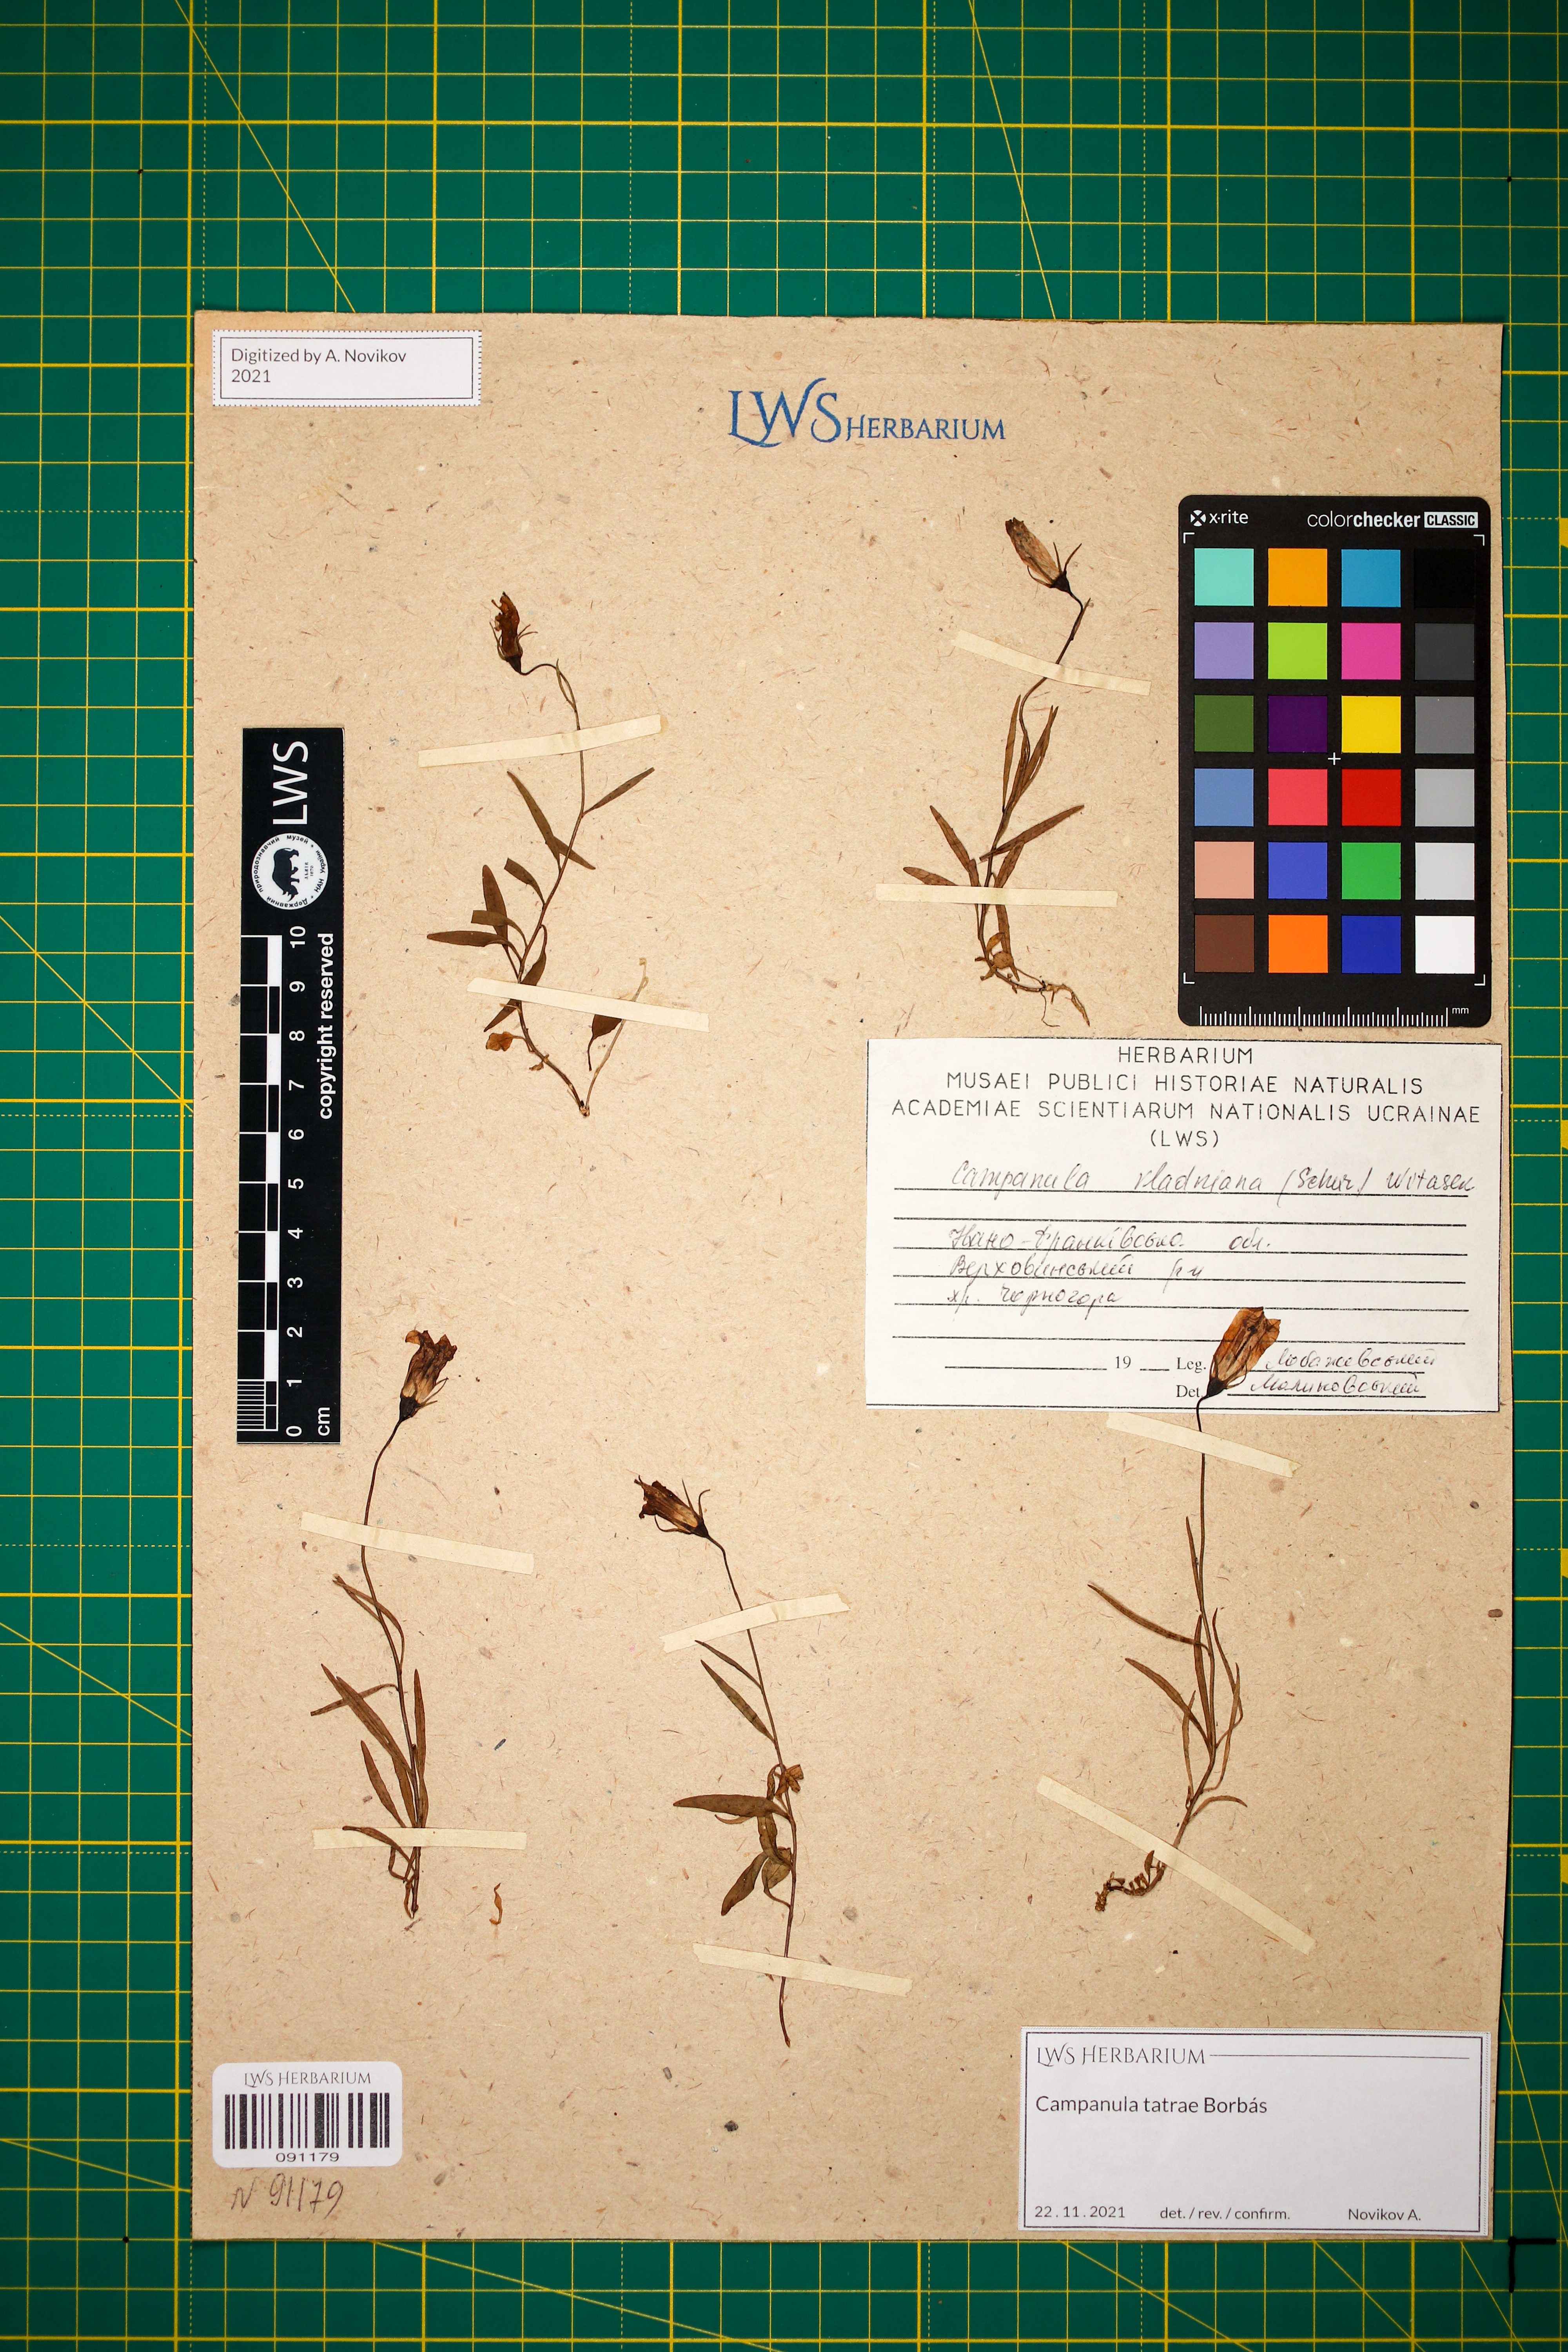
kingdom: Plantae
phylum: Tracheophyta
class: Magnoliopsida
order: Asterales
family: Campanulaceae
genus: Campanula
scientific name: Campanula kladniana
